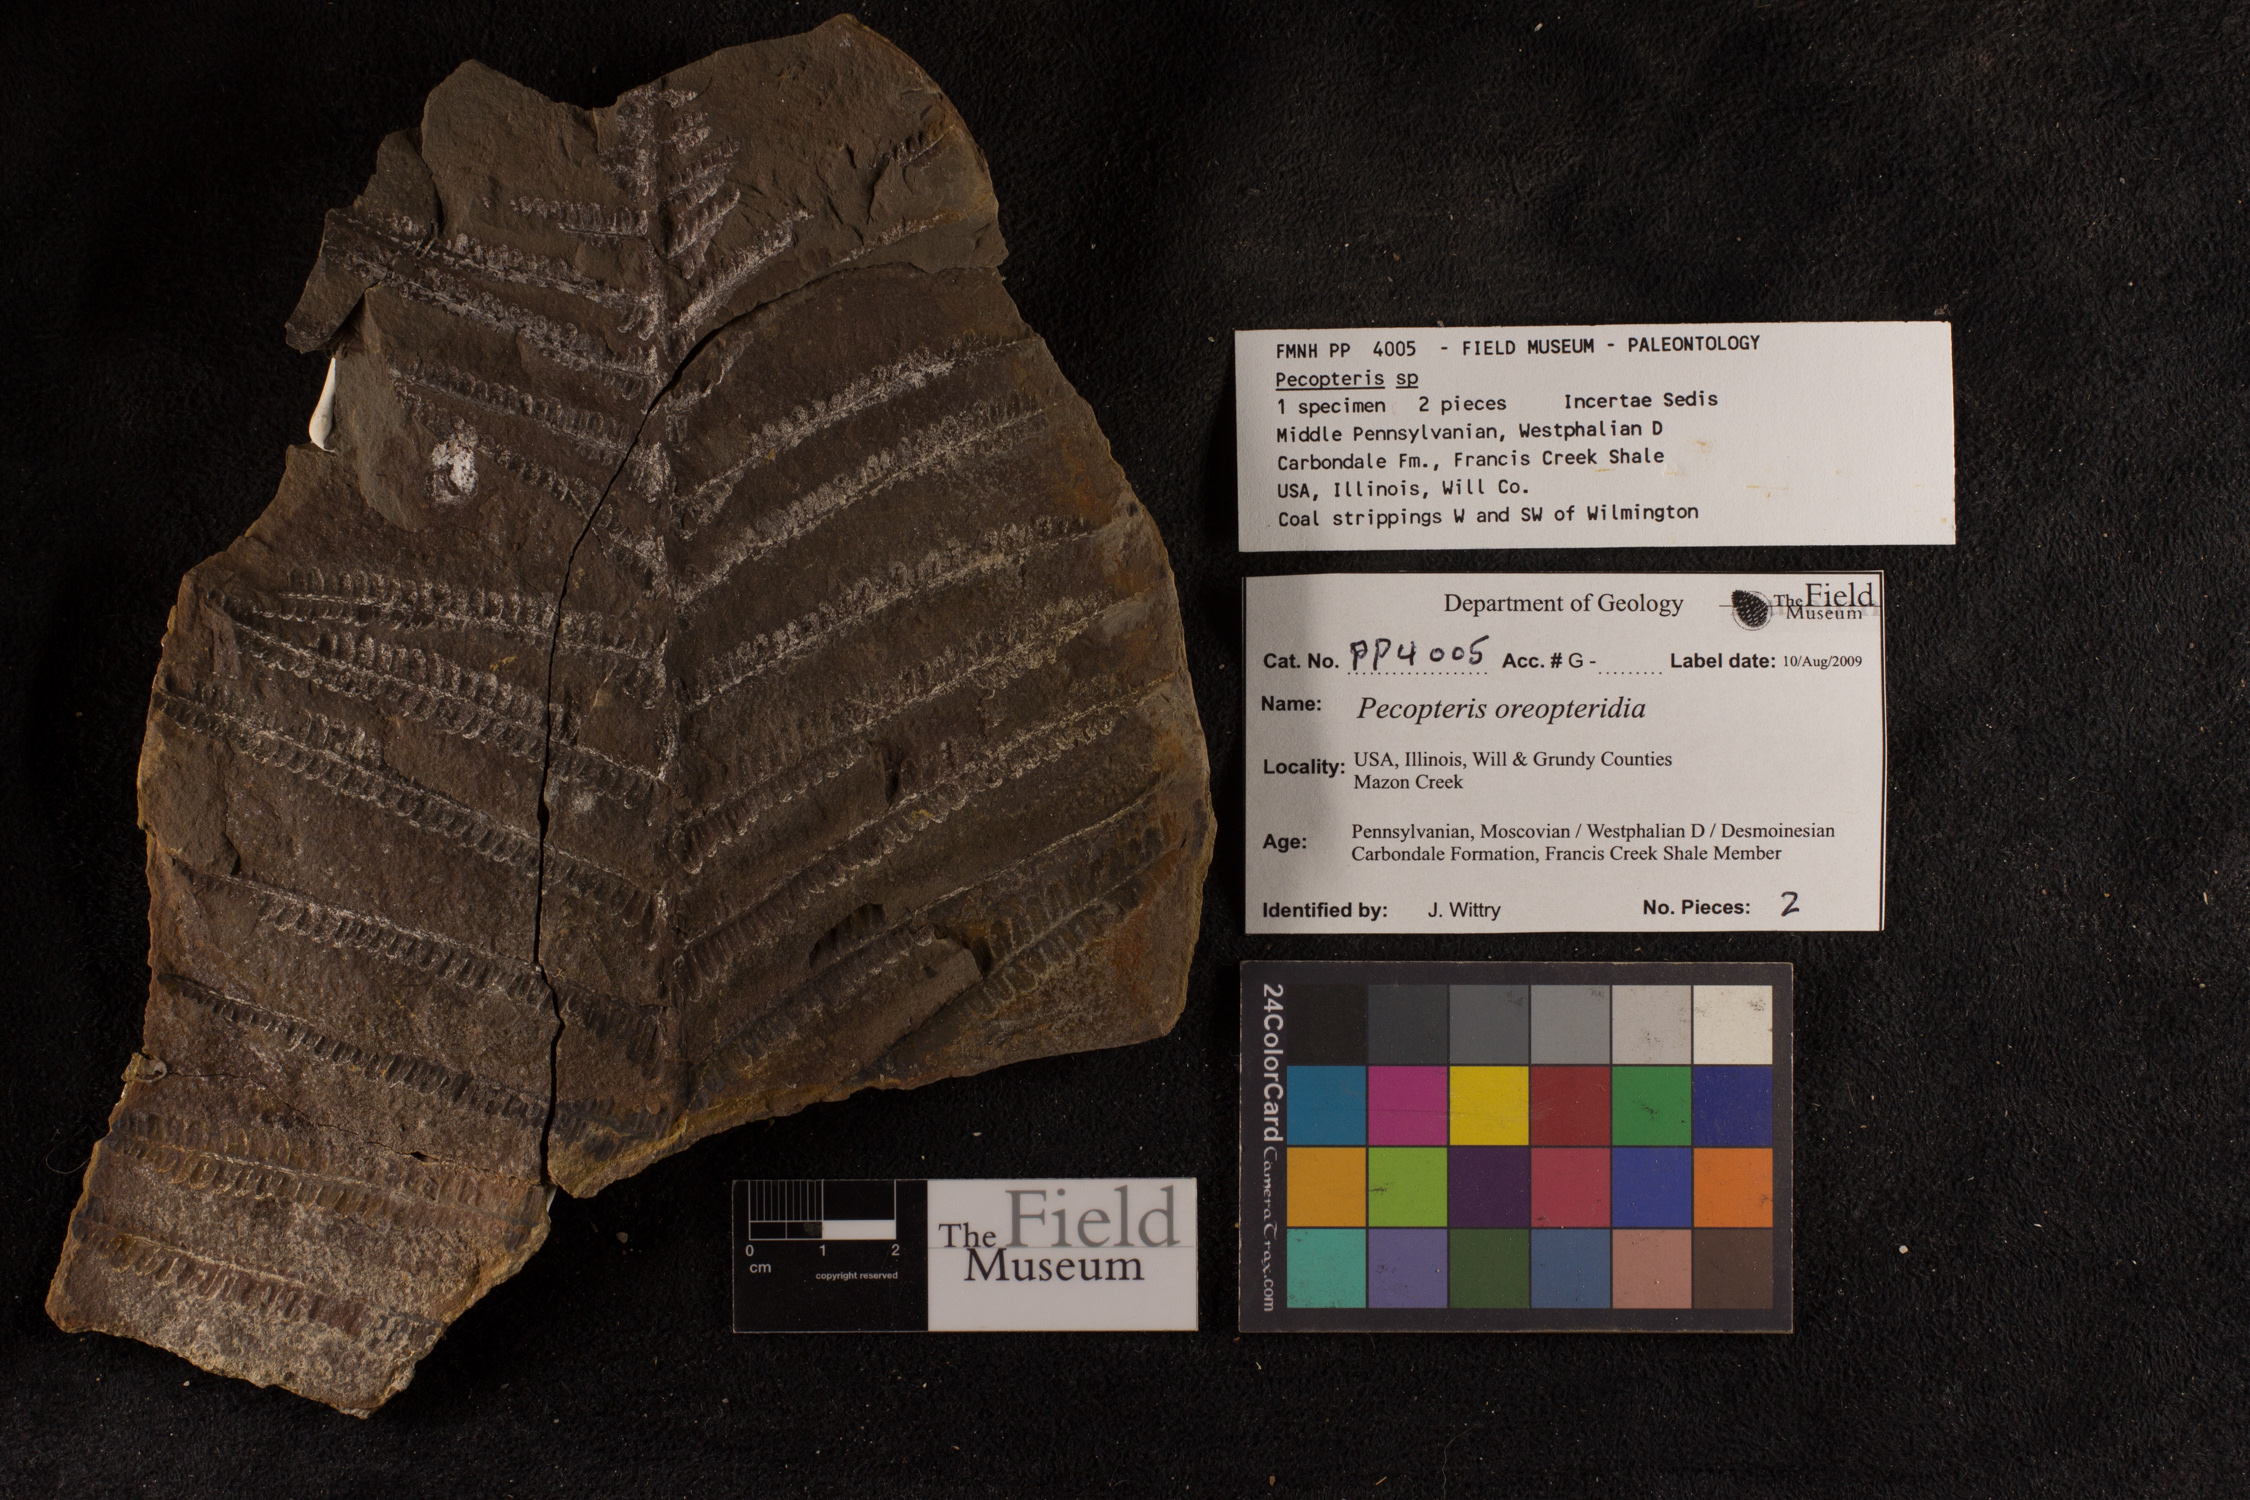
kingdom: Plantae
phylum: Tracheophyta
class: Polypodiopsida
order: Marattiales
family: Asterothecaceae
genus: Pecopteris
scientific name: Pecopteris
